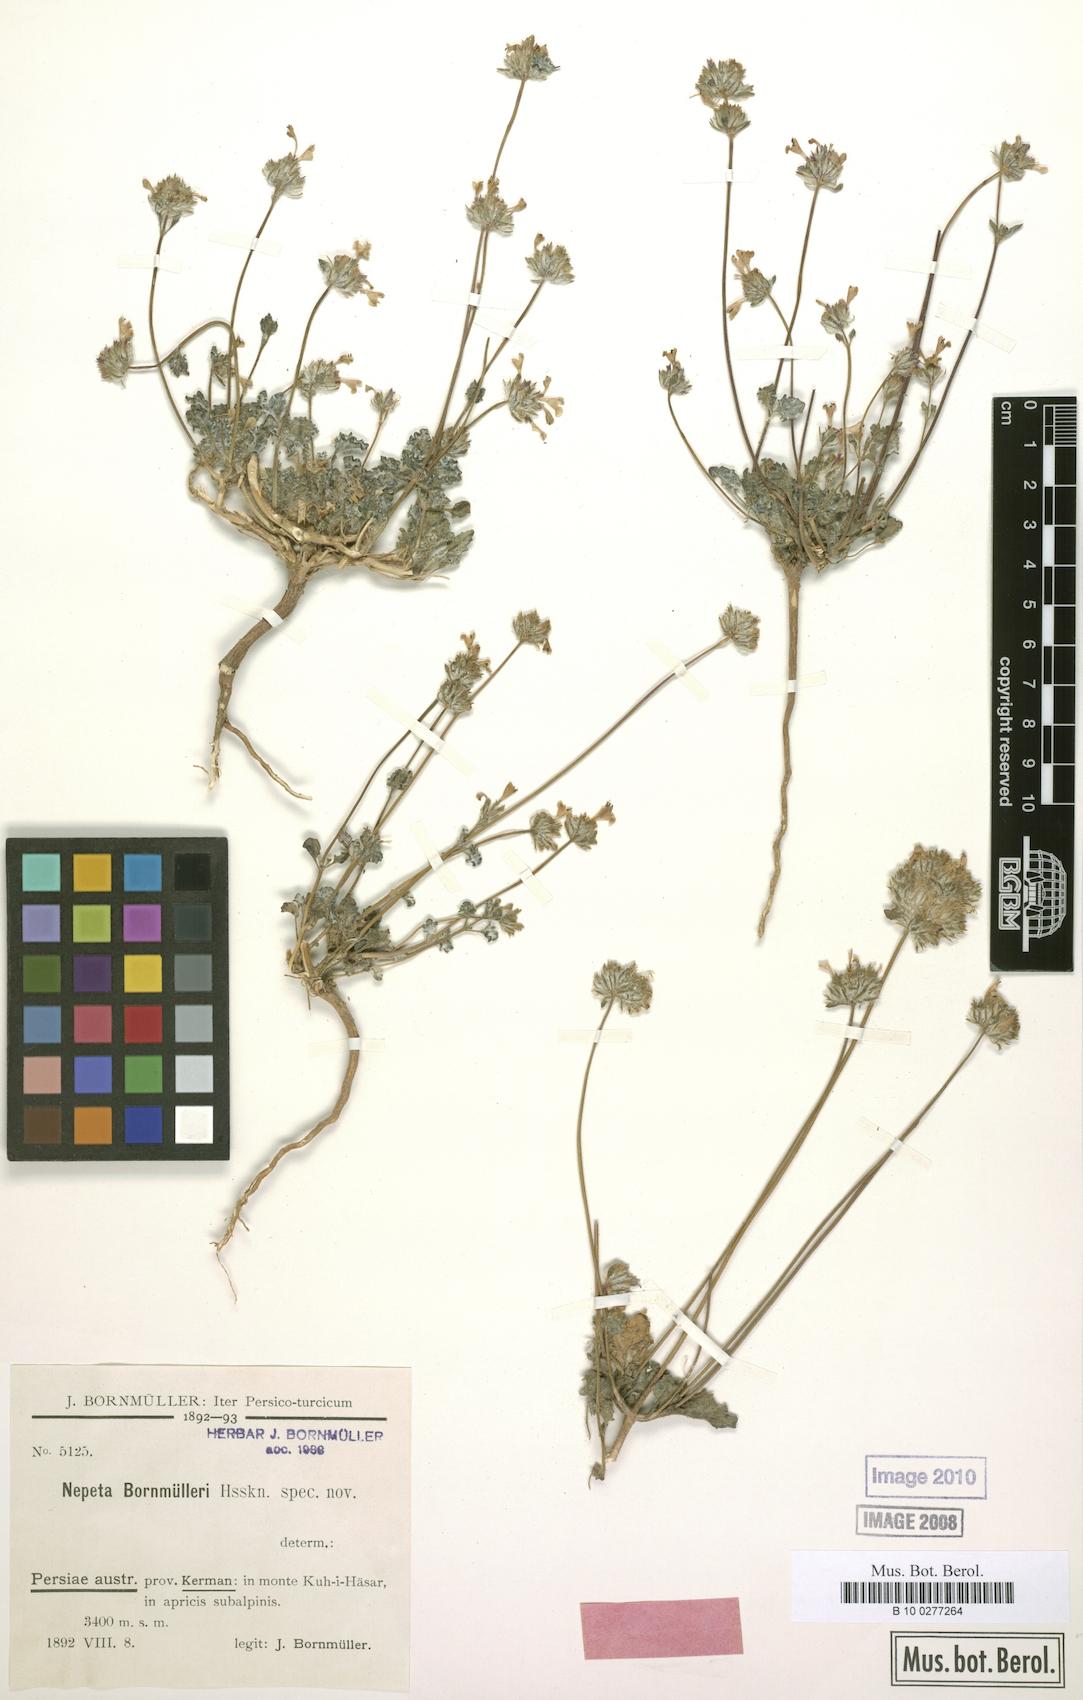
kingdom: Plantae
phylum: Tracheophyta
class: Magnoliopsida
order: Lamiales
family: Lamiaceae
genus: Nepeta
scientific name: Nepeta bornmuelleri
